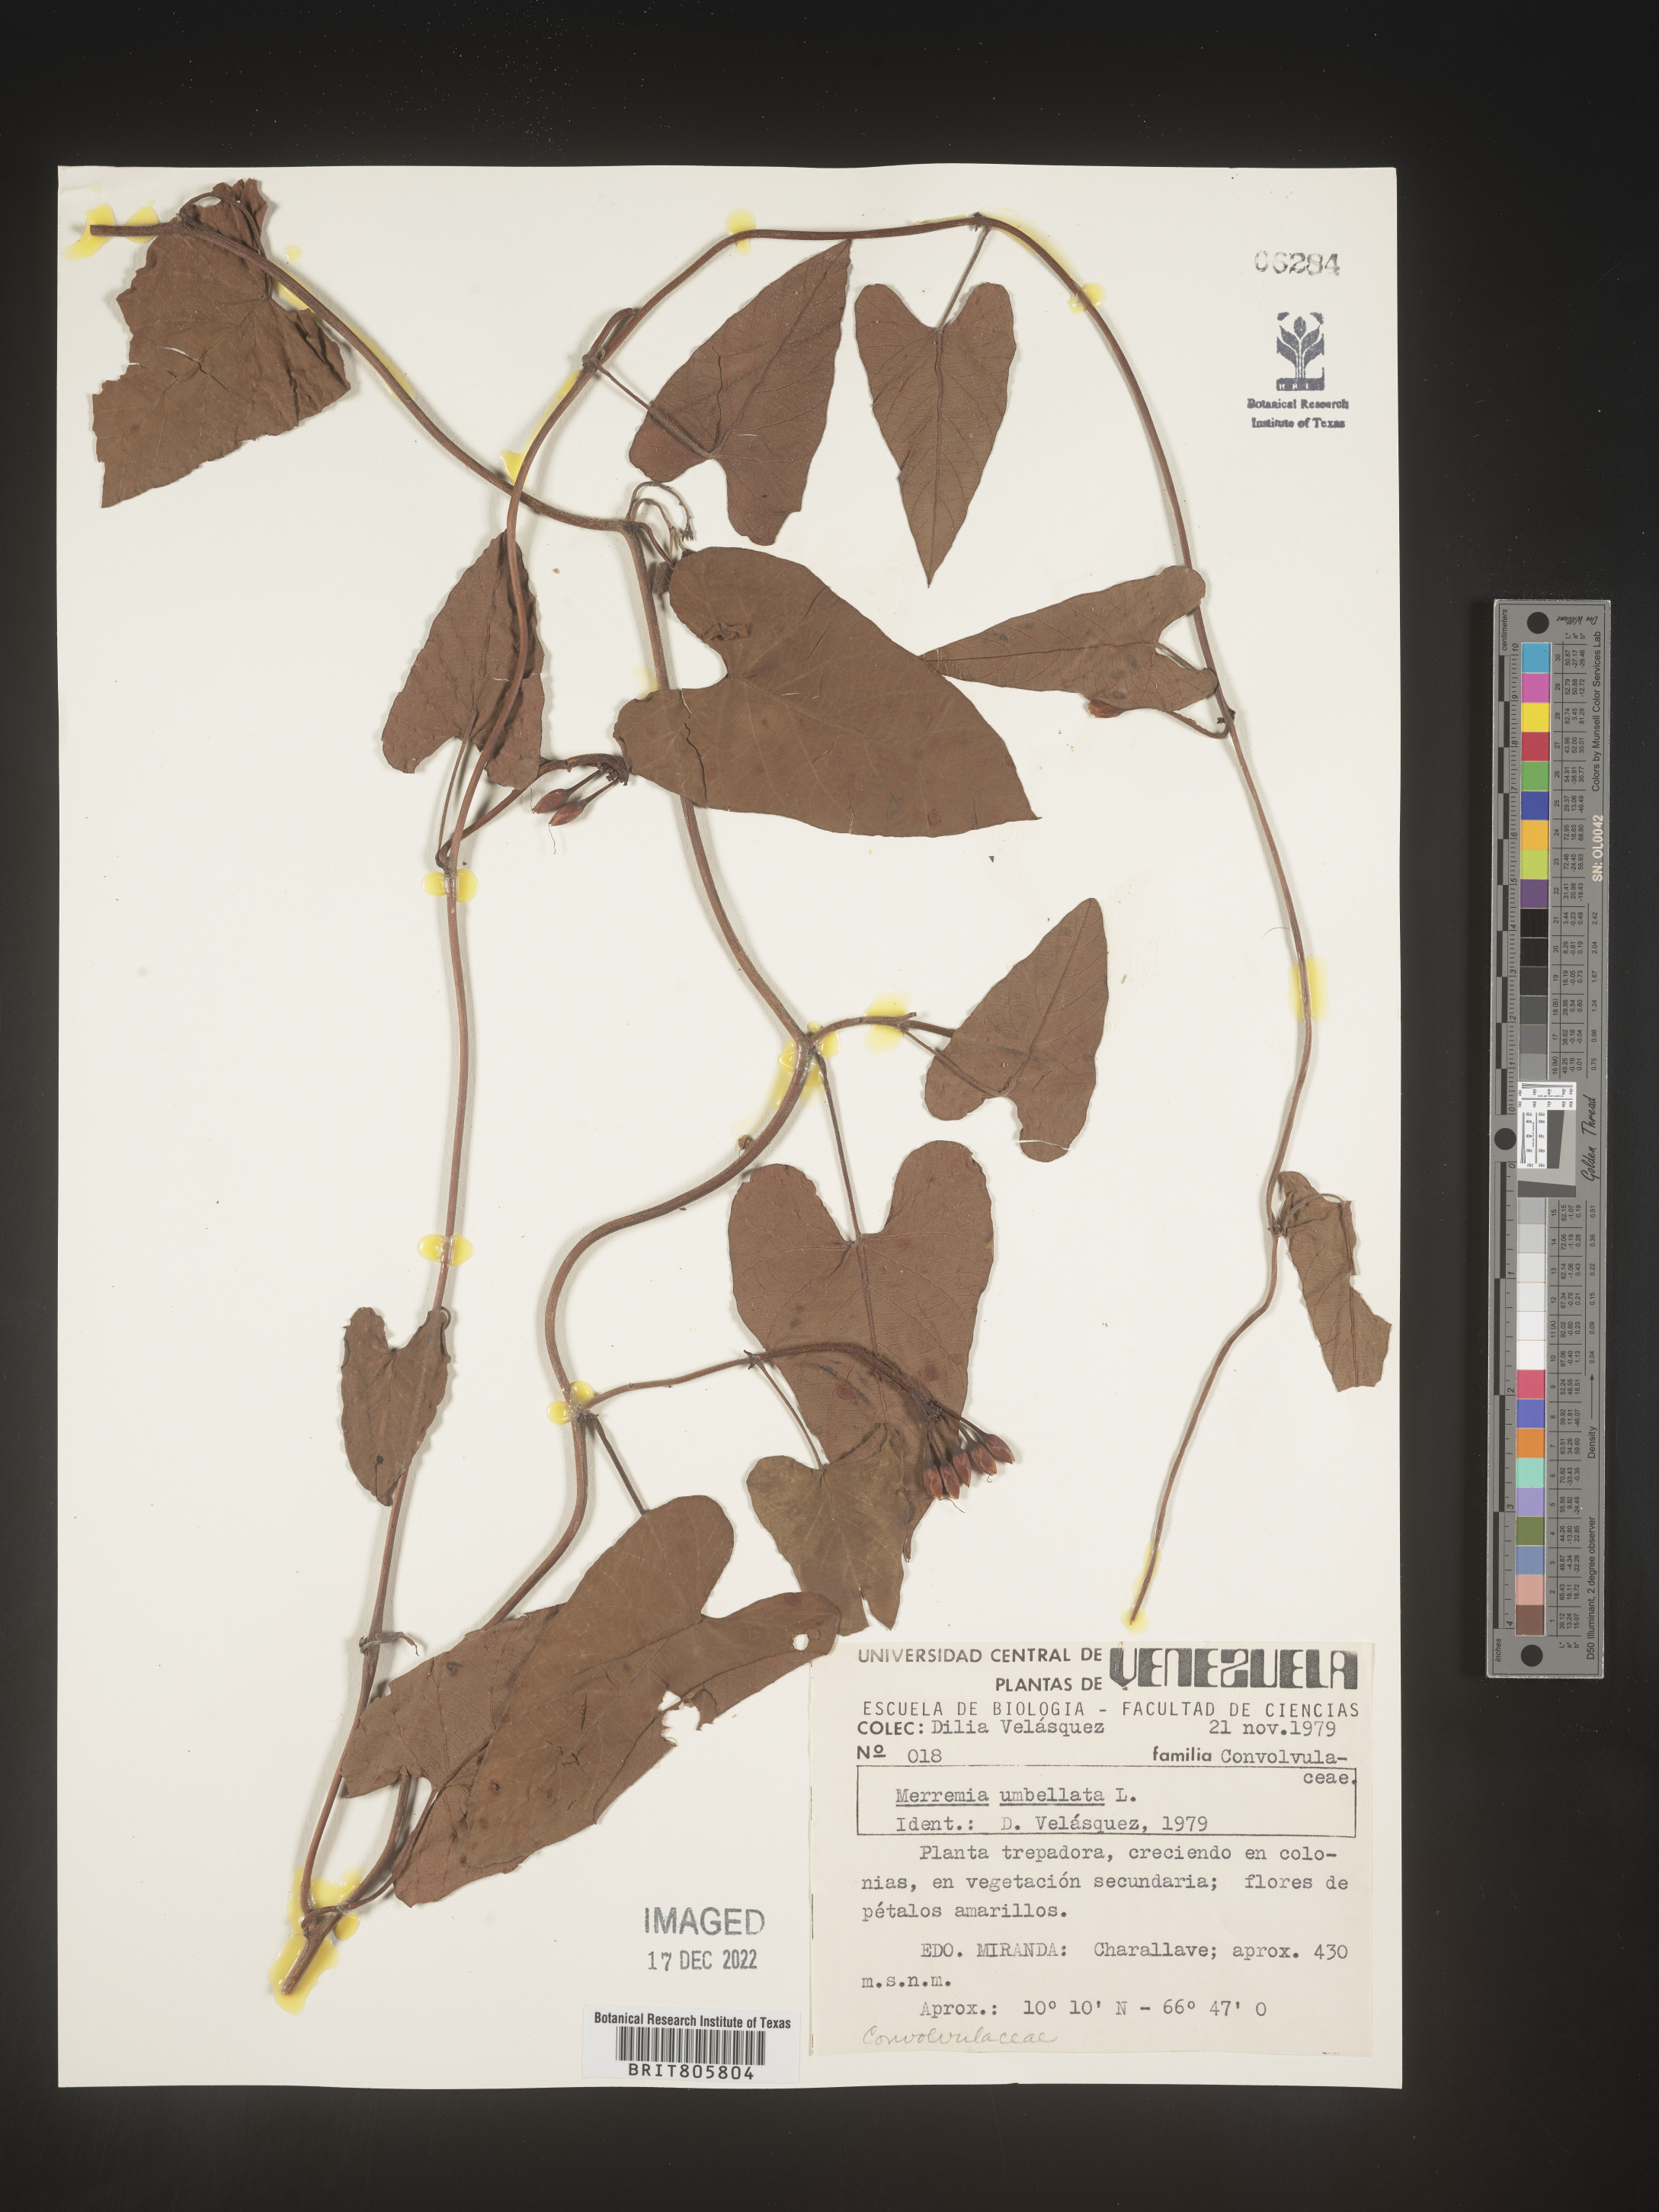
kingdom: Plantae
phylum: Tracheophyta
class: Magnoliopsida
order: Solanales
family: Convolvulaceae
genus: Merremia
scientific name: Merremia
